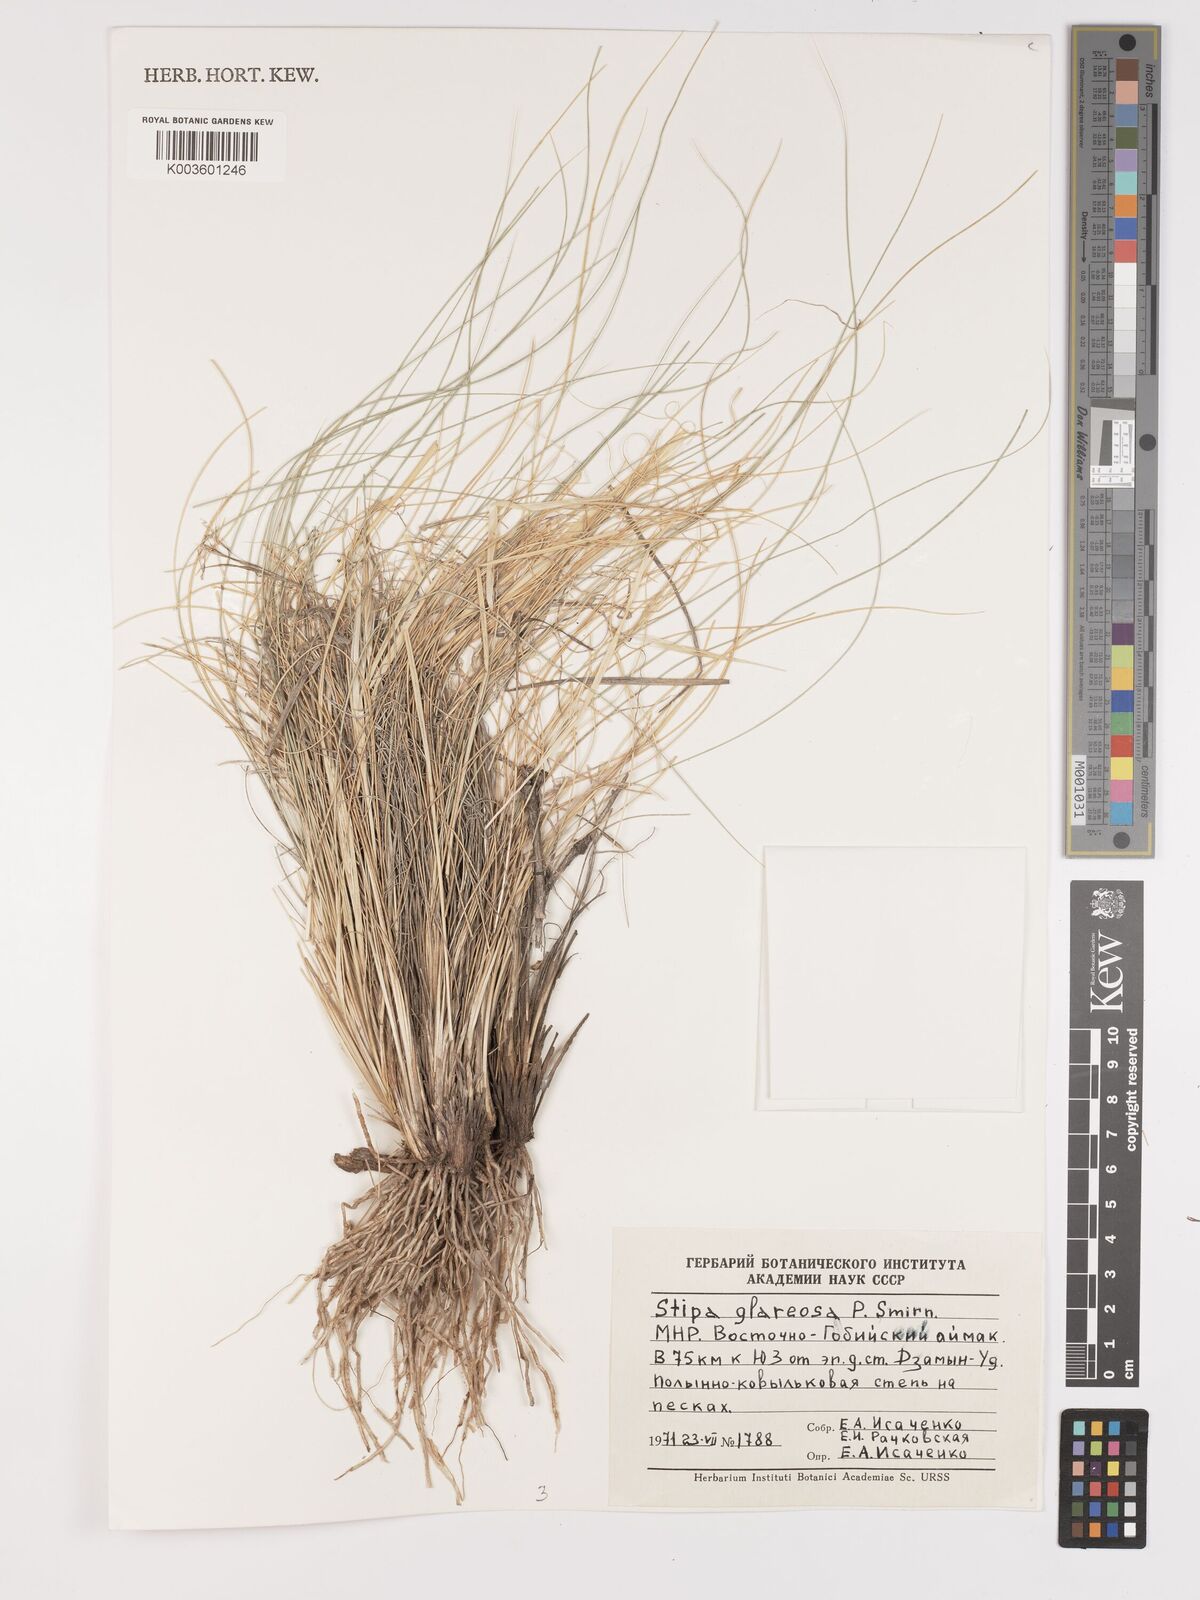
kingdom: Plantae
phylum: Tracheophyta
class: Liliopsida
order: Poales
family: Poaceae
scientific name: Poaceae
